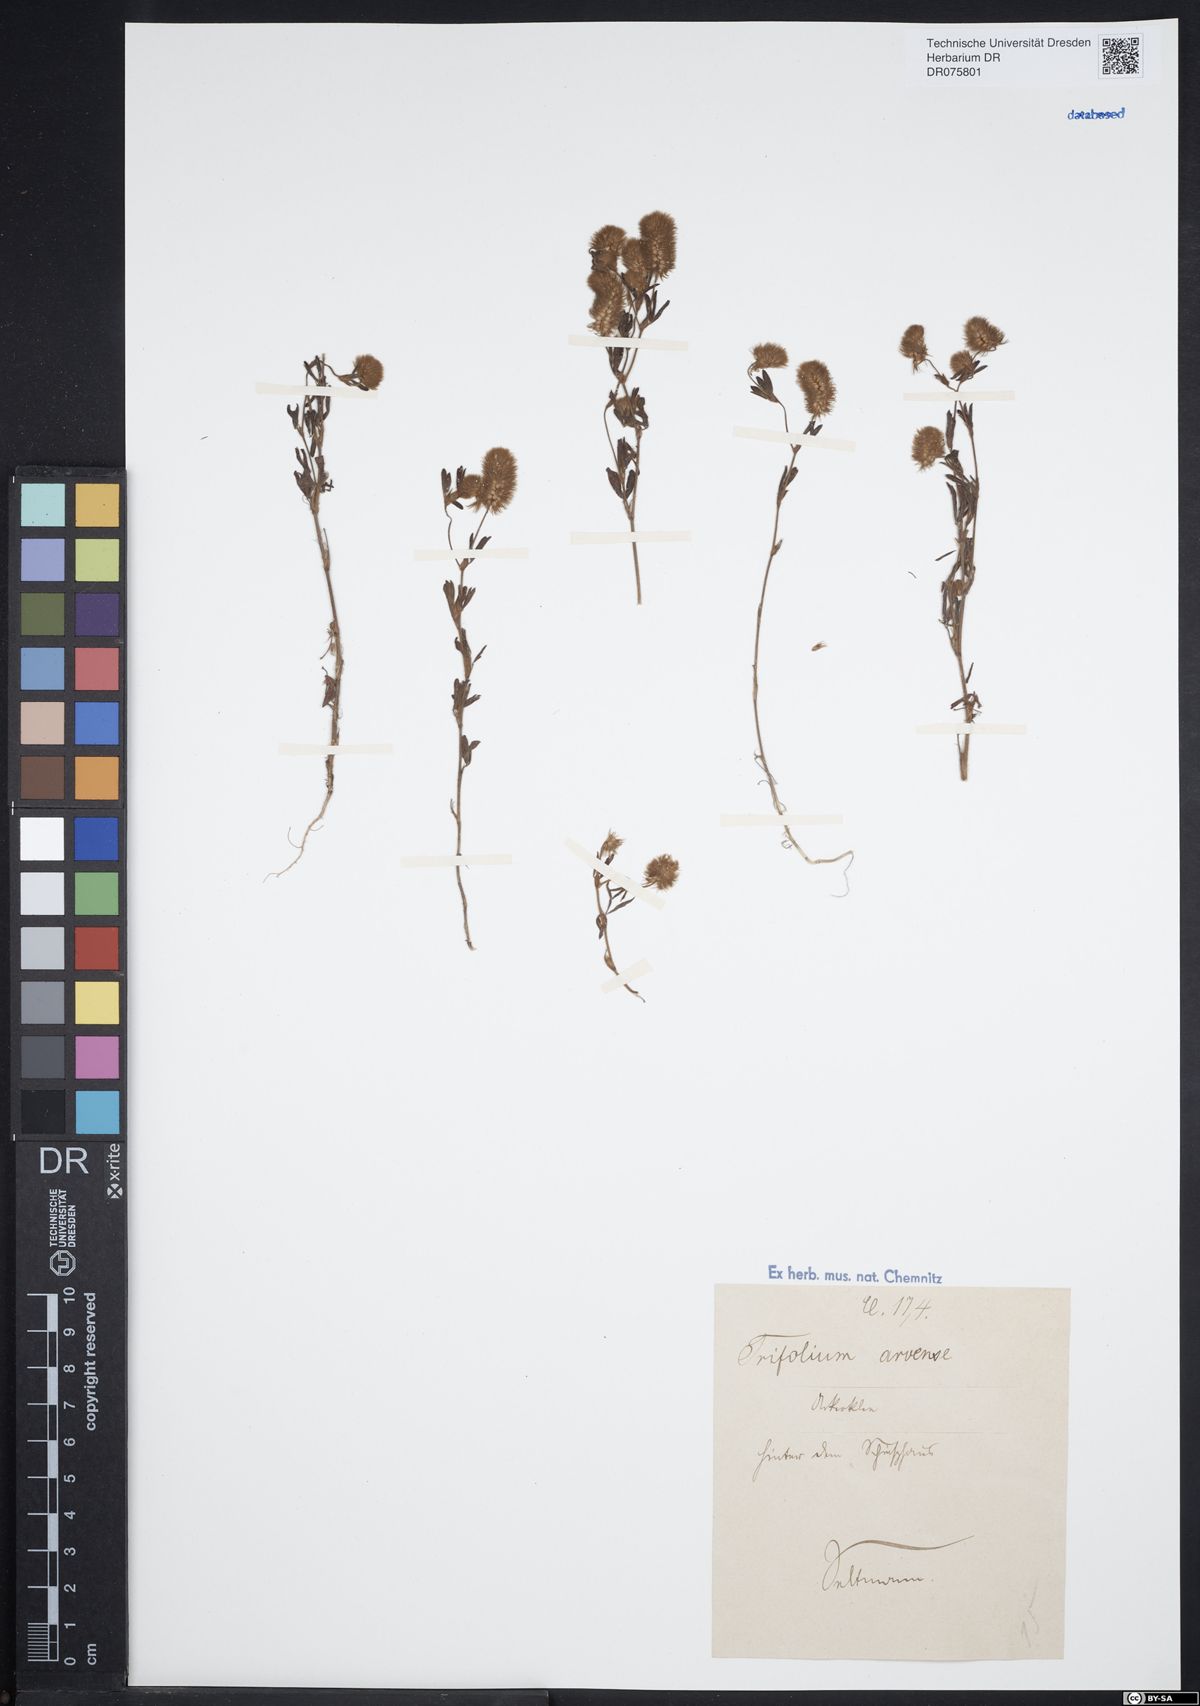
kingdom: Plantae
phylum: Tracheophyta
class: Magnoliopsida
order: Fabales
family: Fabaceae
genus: Trifolium
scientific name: Trifolium arvense
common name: Hare's-foot clover
